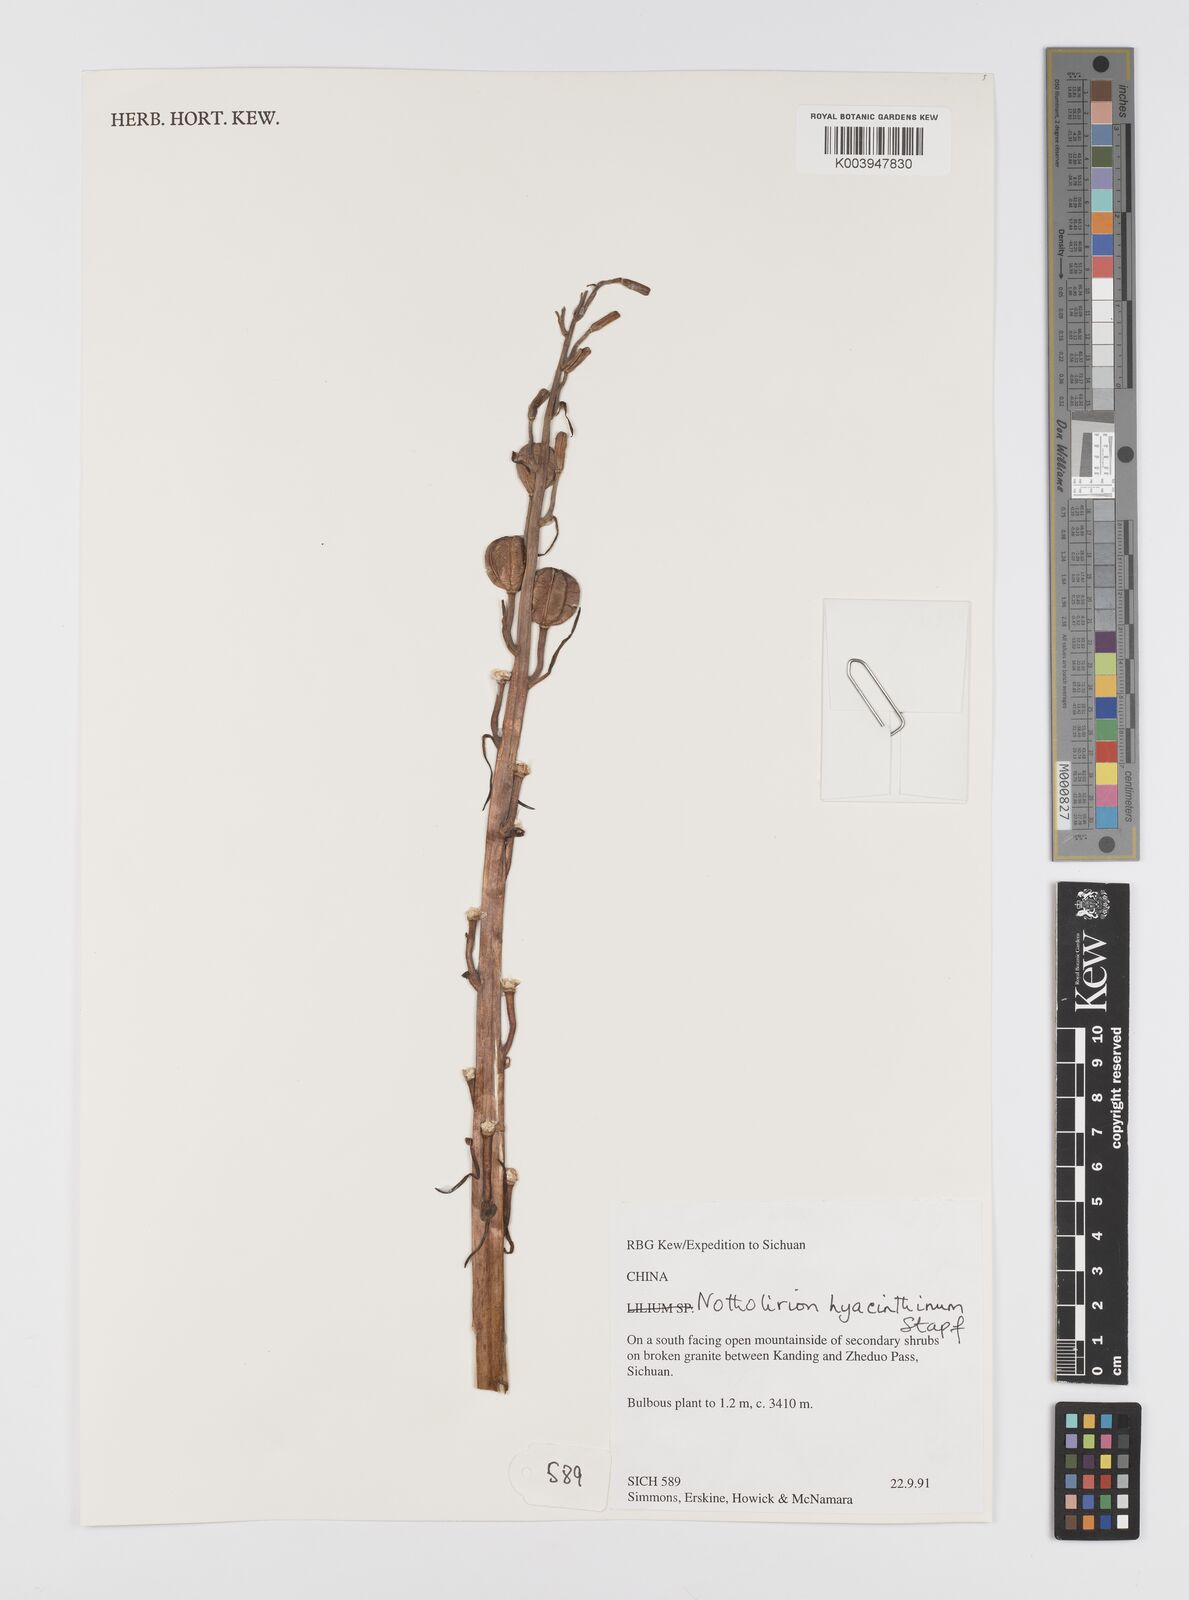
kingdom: Plantae
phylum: Tracheophyta
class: Liliopsida
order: Liliales
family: Liliaceae
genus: Notholirion
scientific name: Notholirion bulbuliferum
